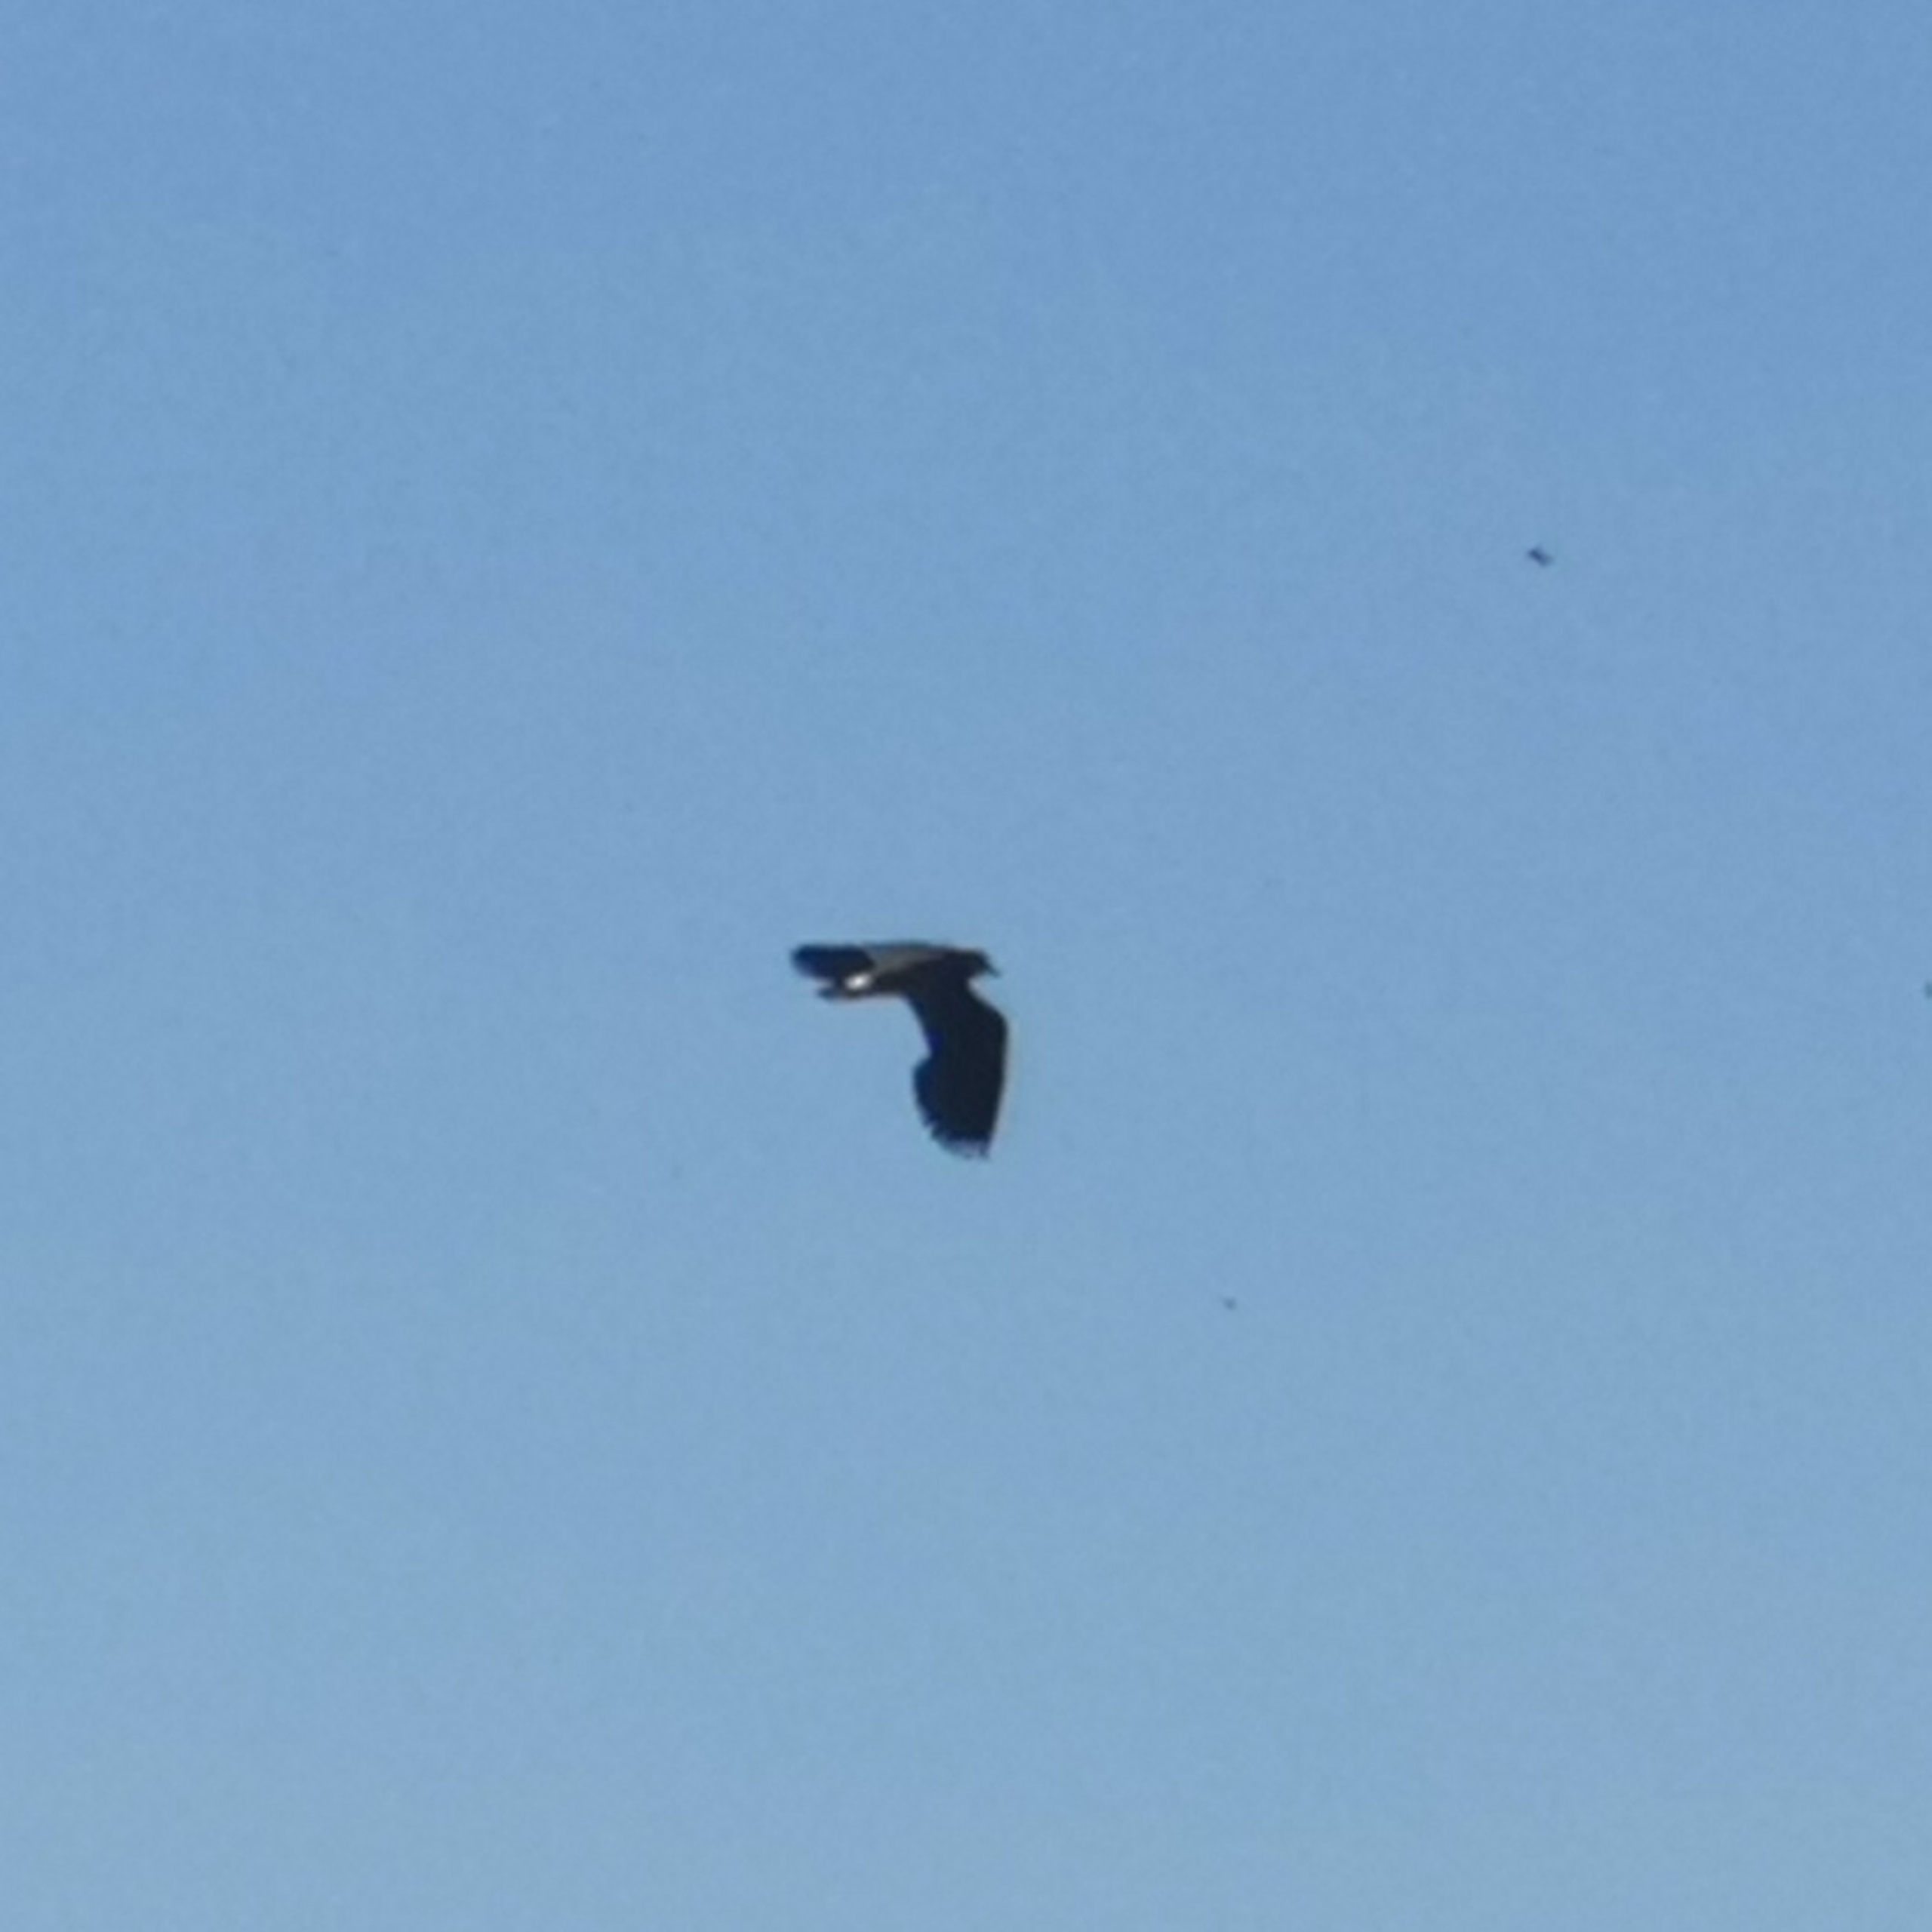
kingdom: Animalia
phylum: Chordata
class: Aves
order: Charadriiformes
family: Charadriidae
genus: Vanellus
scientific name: Vanellus vanellus
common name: Vibe
